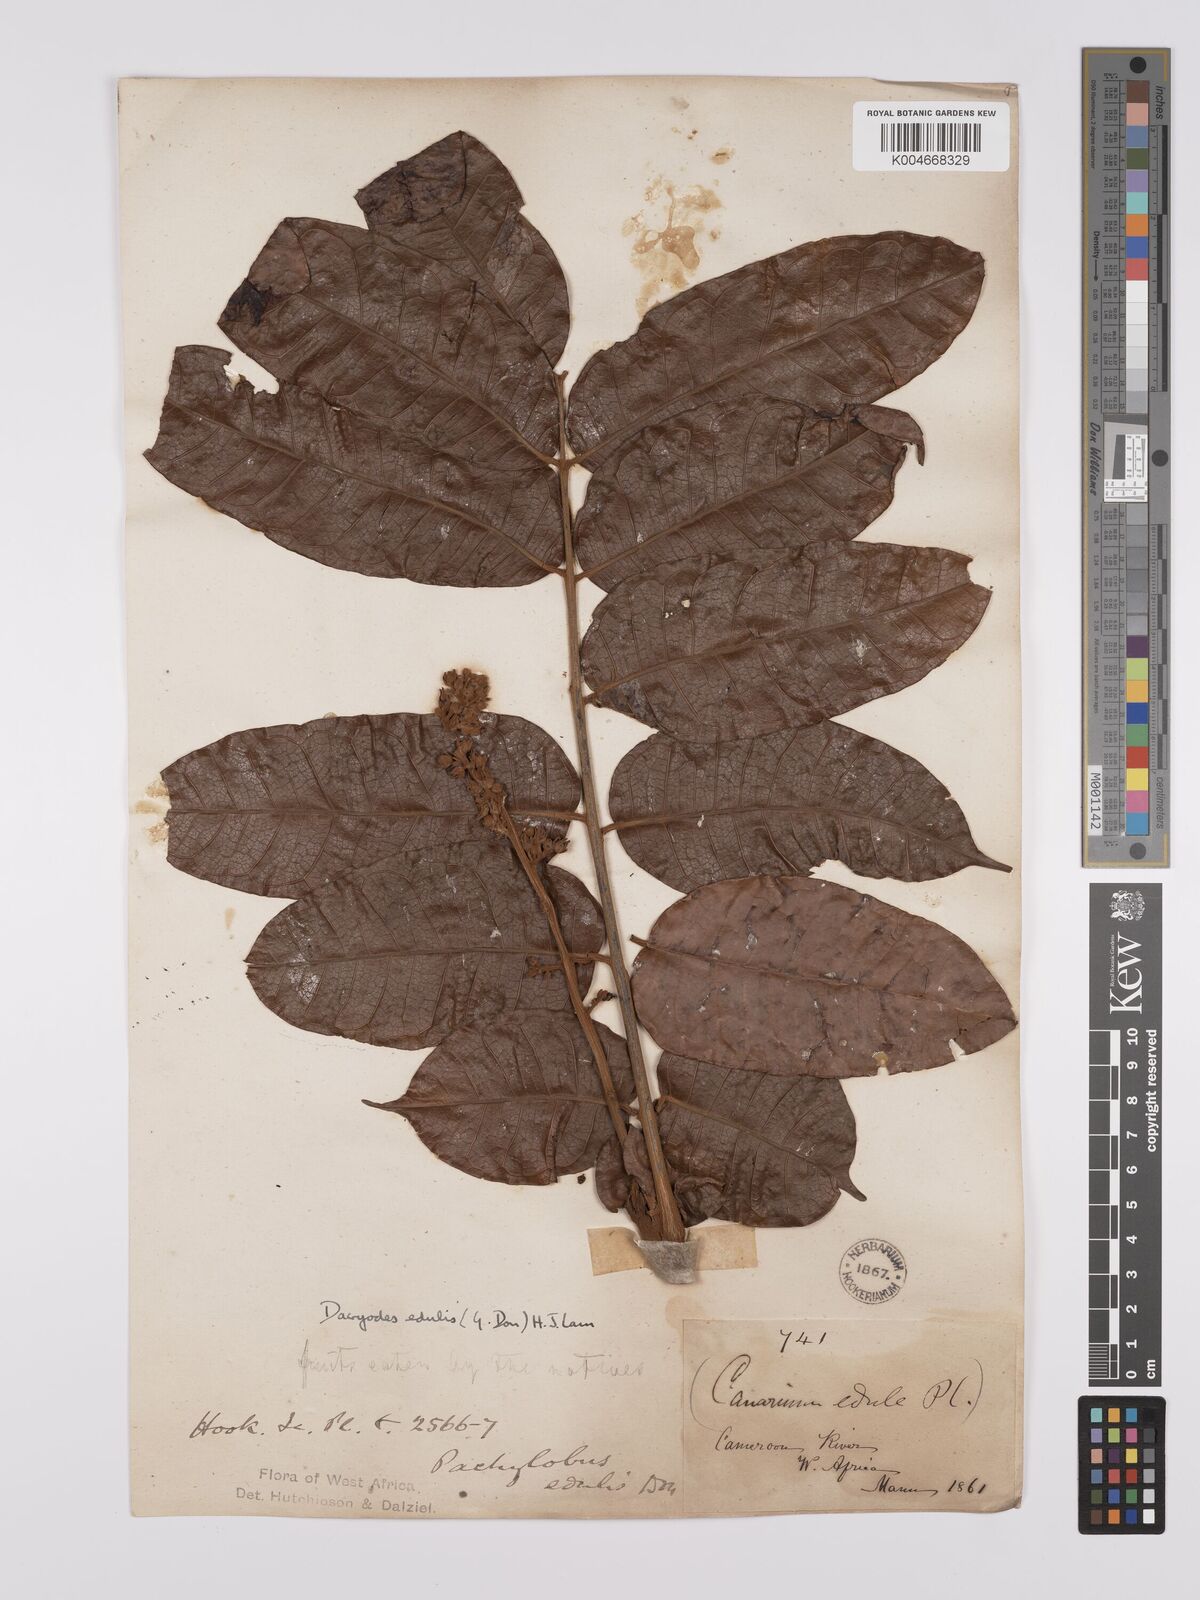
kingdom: Plantae
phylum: Tracheophyta
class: Magnoliopsida
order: Sapindales
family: Burseraceae
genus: Pachylobus
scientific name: Pachylobus edulis
